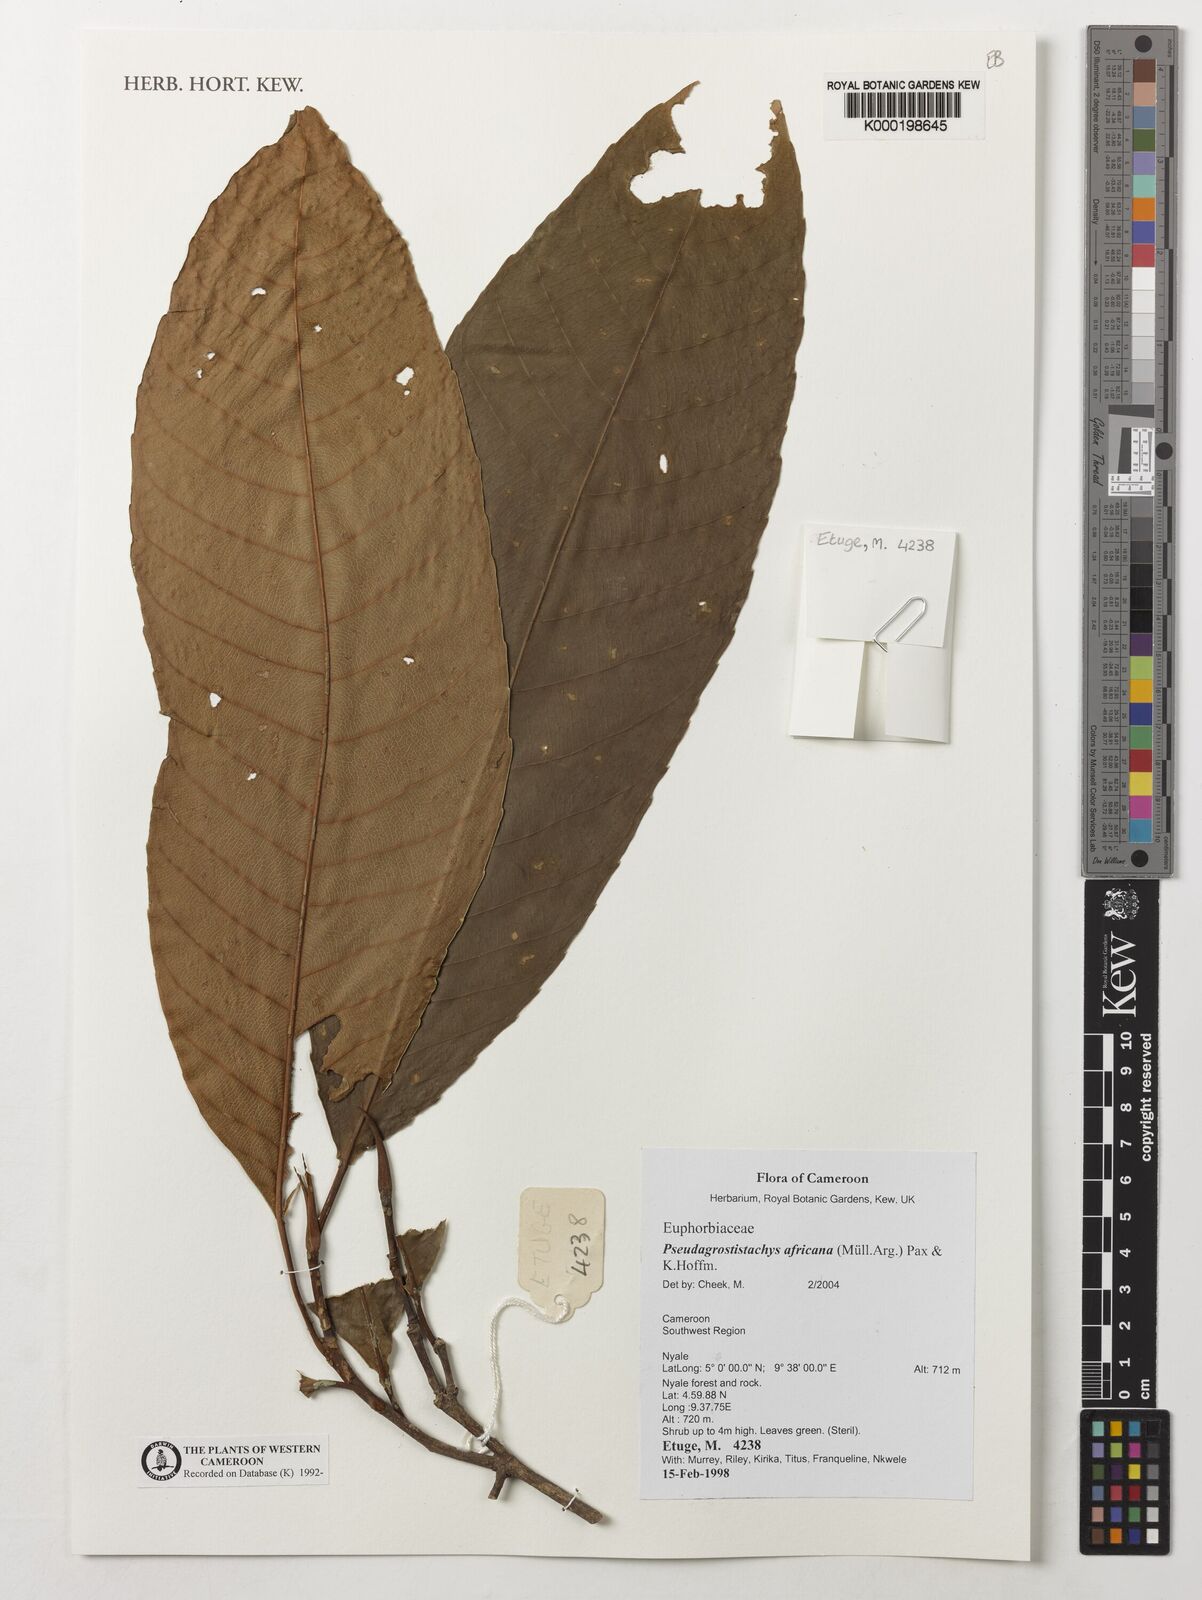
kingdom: Plantae
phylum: Tracheophyta
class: Magnoliopsida
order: Malpighiales
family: Euphorbiaceae
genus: Pseudagrostistachys
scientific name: Pseudagrostistachys
